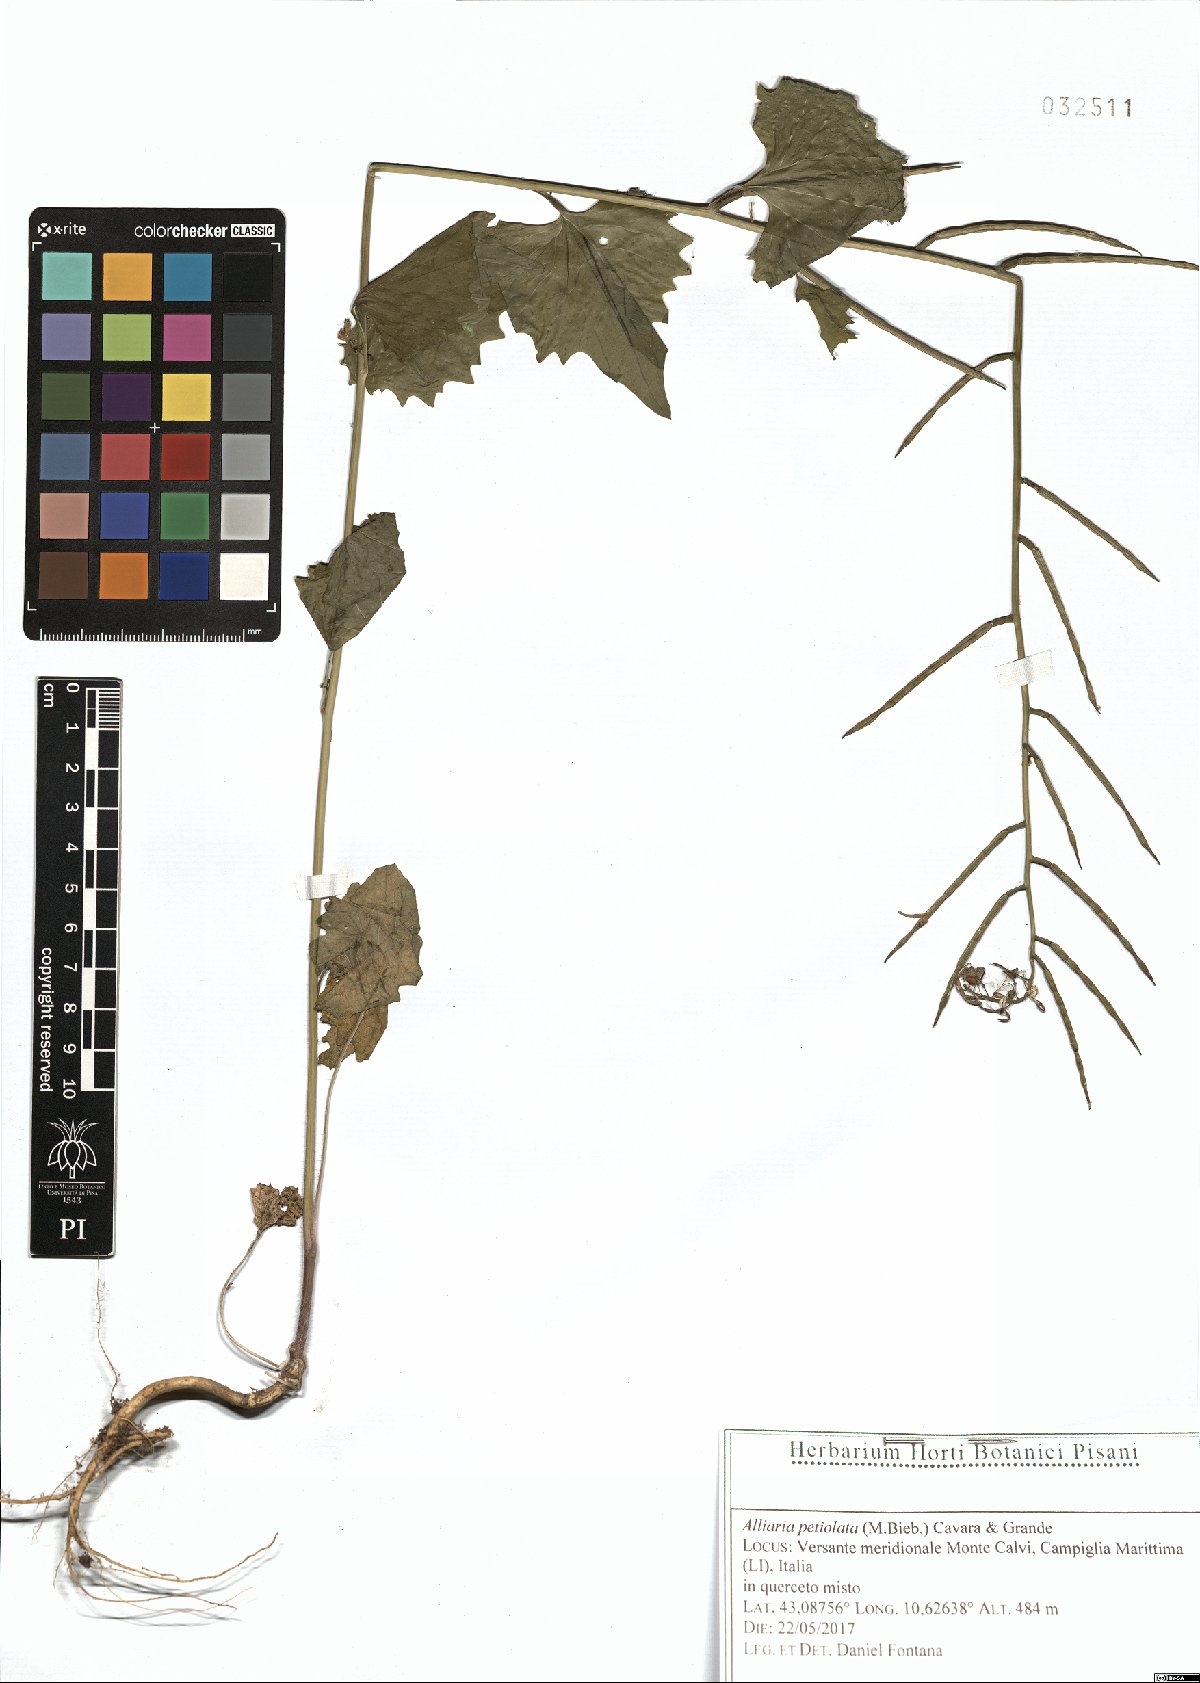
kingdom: Plantae
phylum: Tracheophyta
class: Magnoliopsida
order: Brassicales
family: Brassicaceae
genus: Alliaria
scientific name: Alliaria petiolata
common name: Garlic mustard
